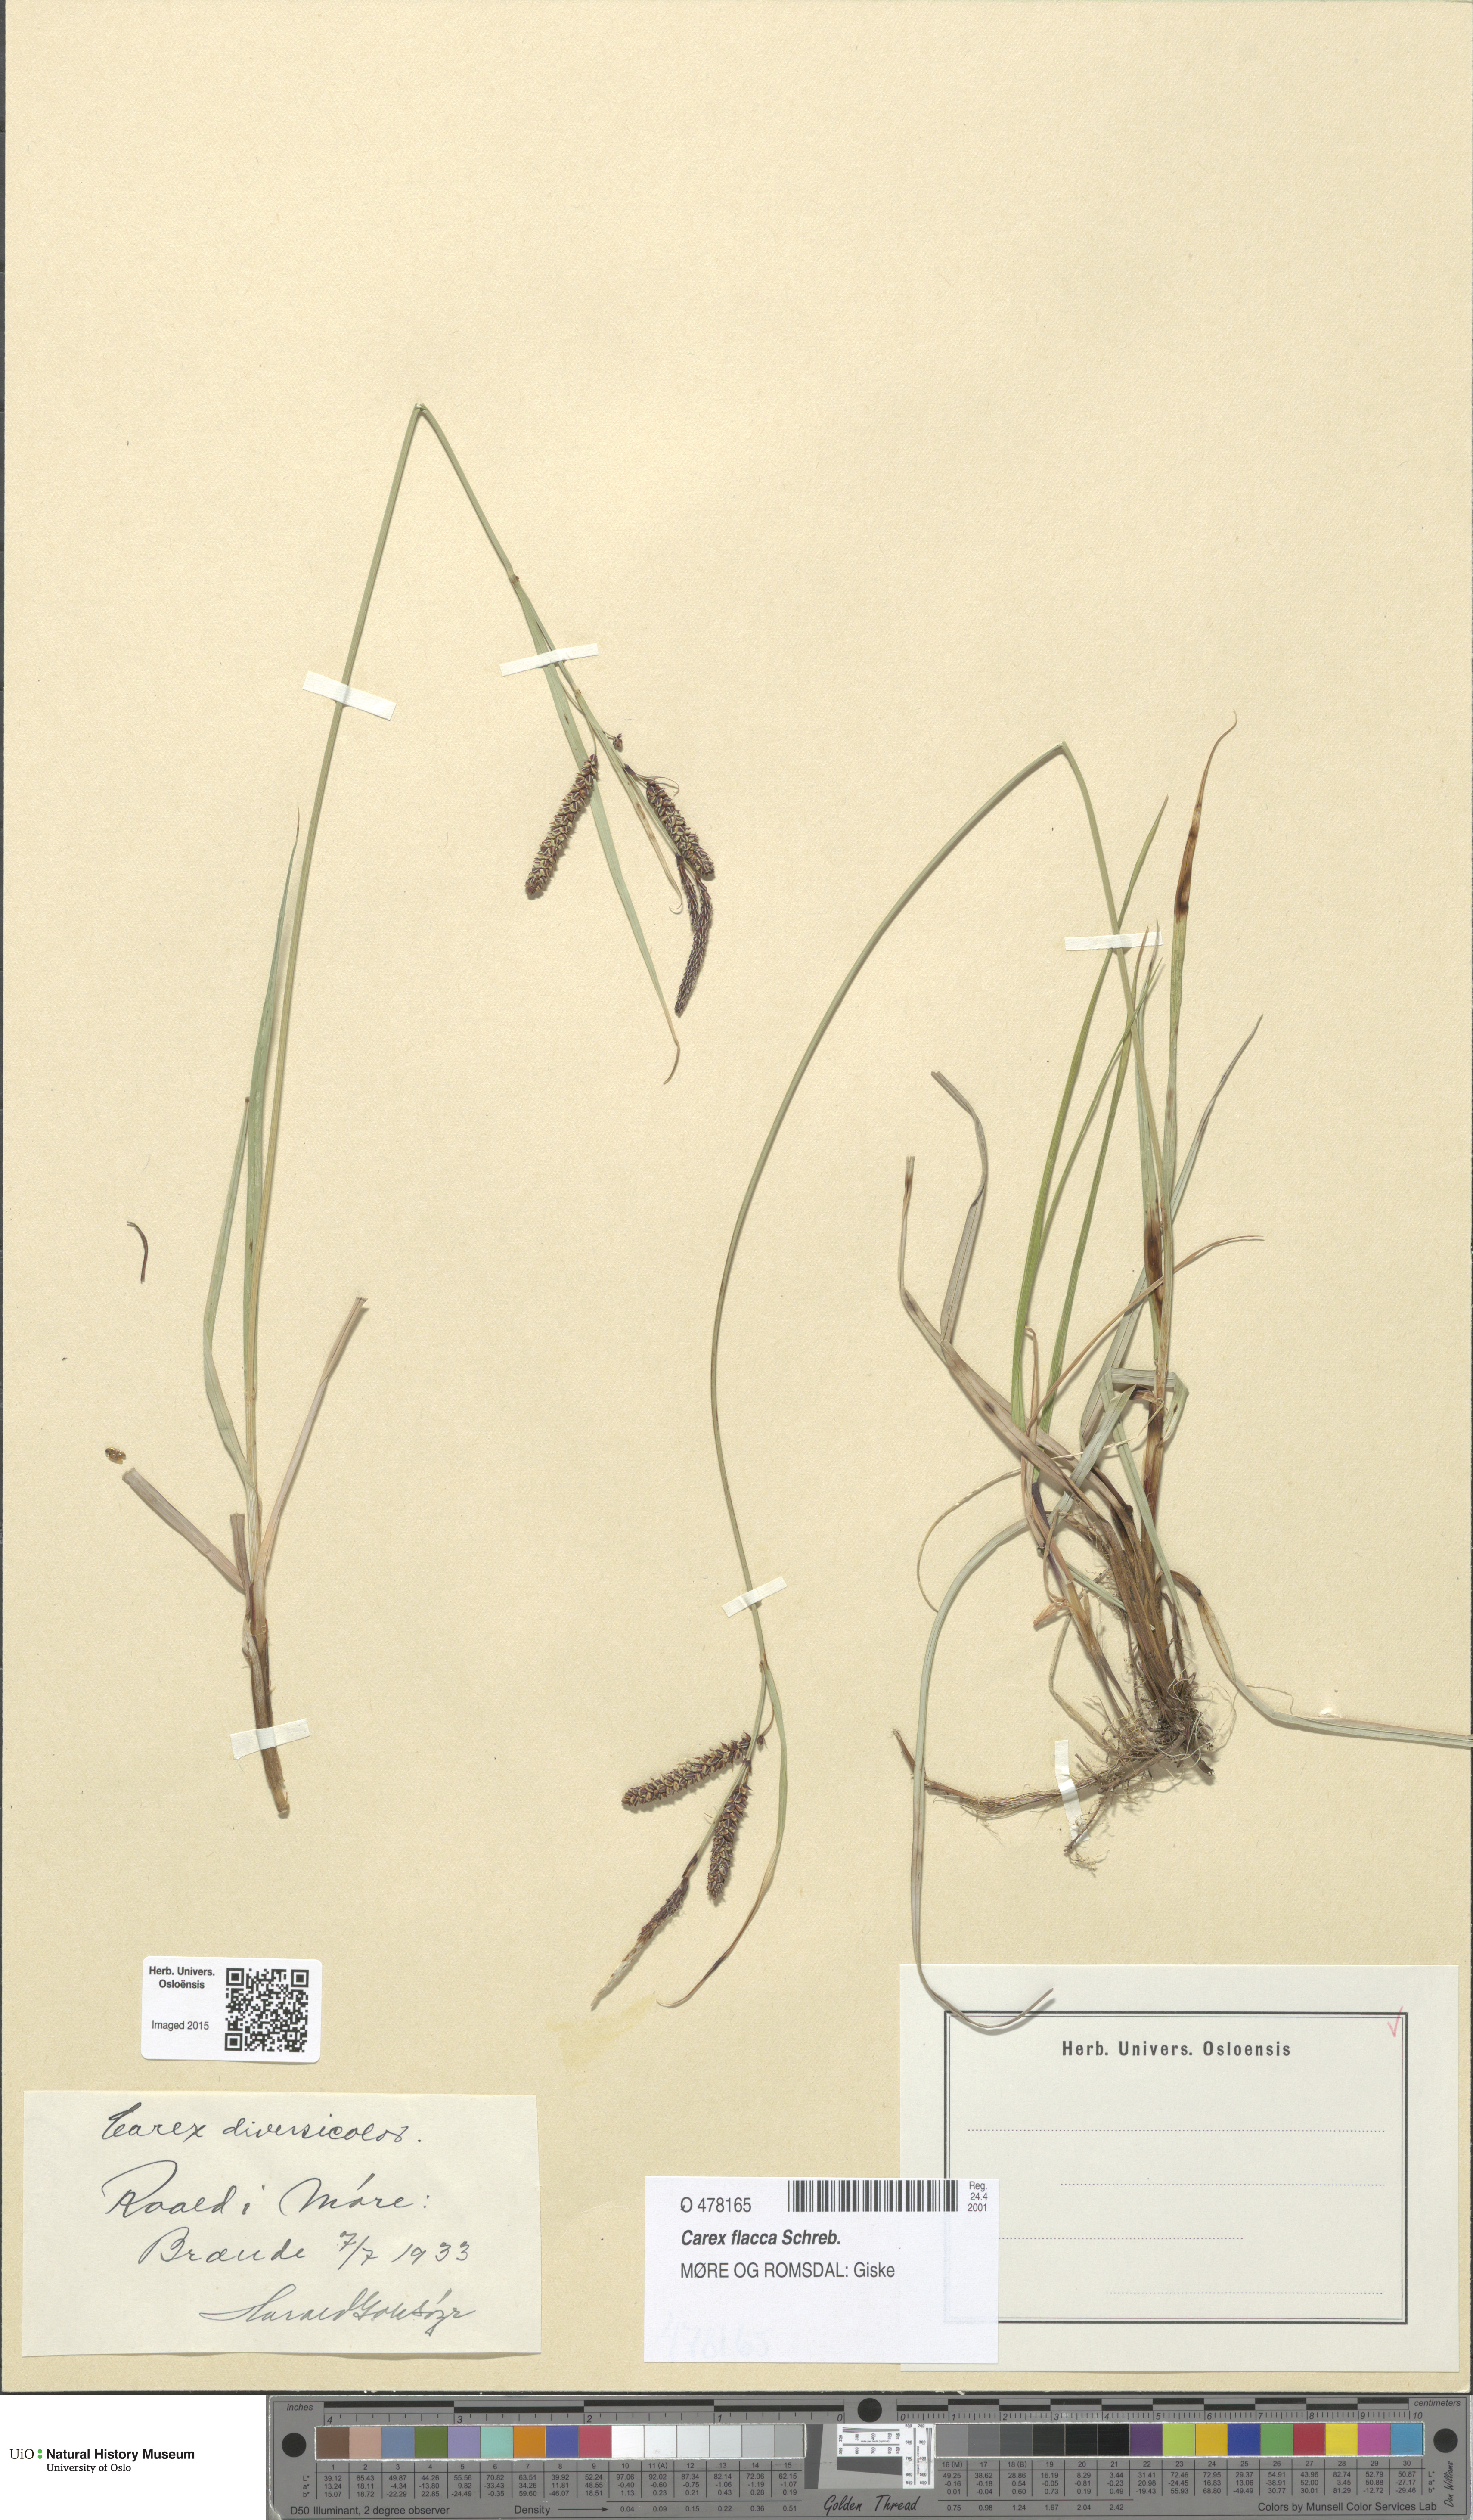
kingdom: Plantae
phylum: Tracheophyta
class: Liliopsida
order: Poales
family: Cyperaceae
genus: Carex
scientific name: Carex flacca
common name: Glaucous sedge
